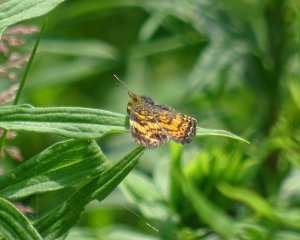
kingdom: Animalia
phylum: Arthropoda
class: Insecta
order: Lepidoptera
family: Nymphalidae
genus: Phyciodes
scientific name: Phyciodes tharos
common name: Northern Crescent
